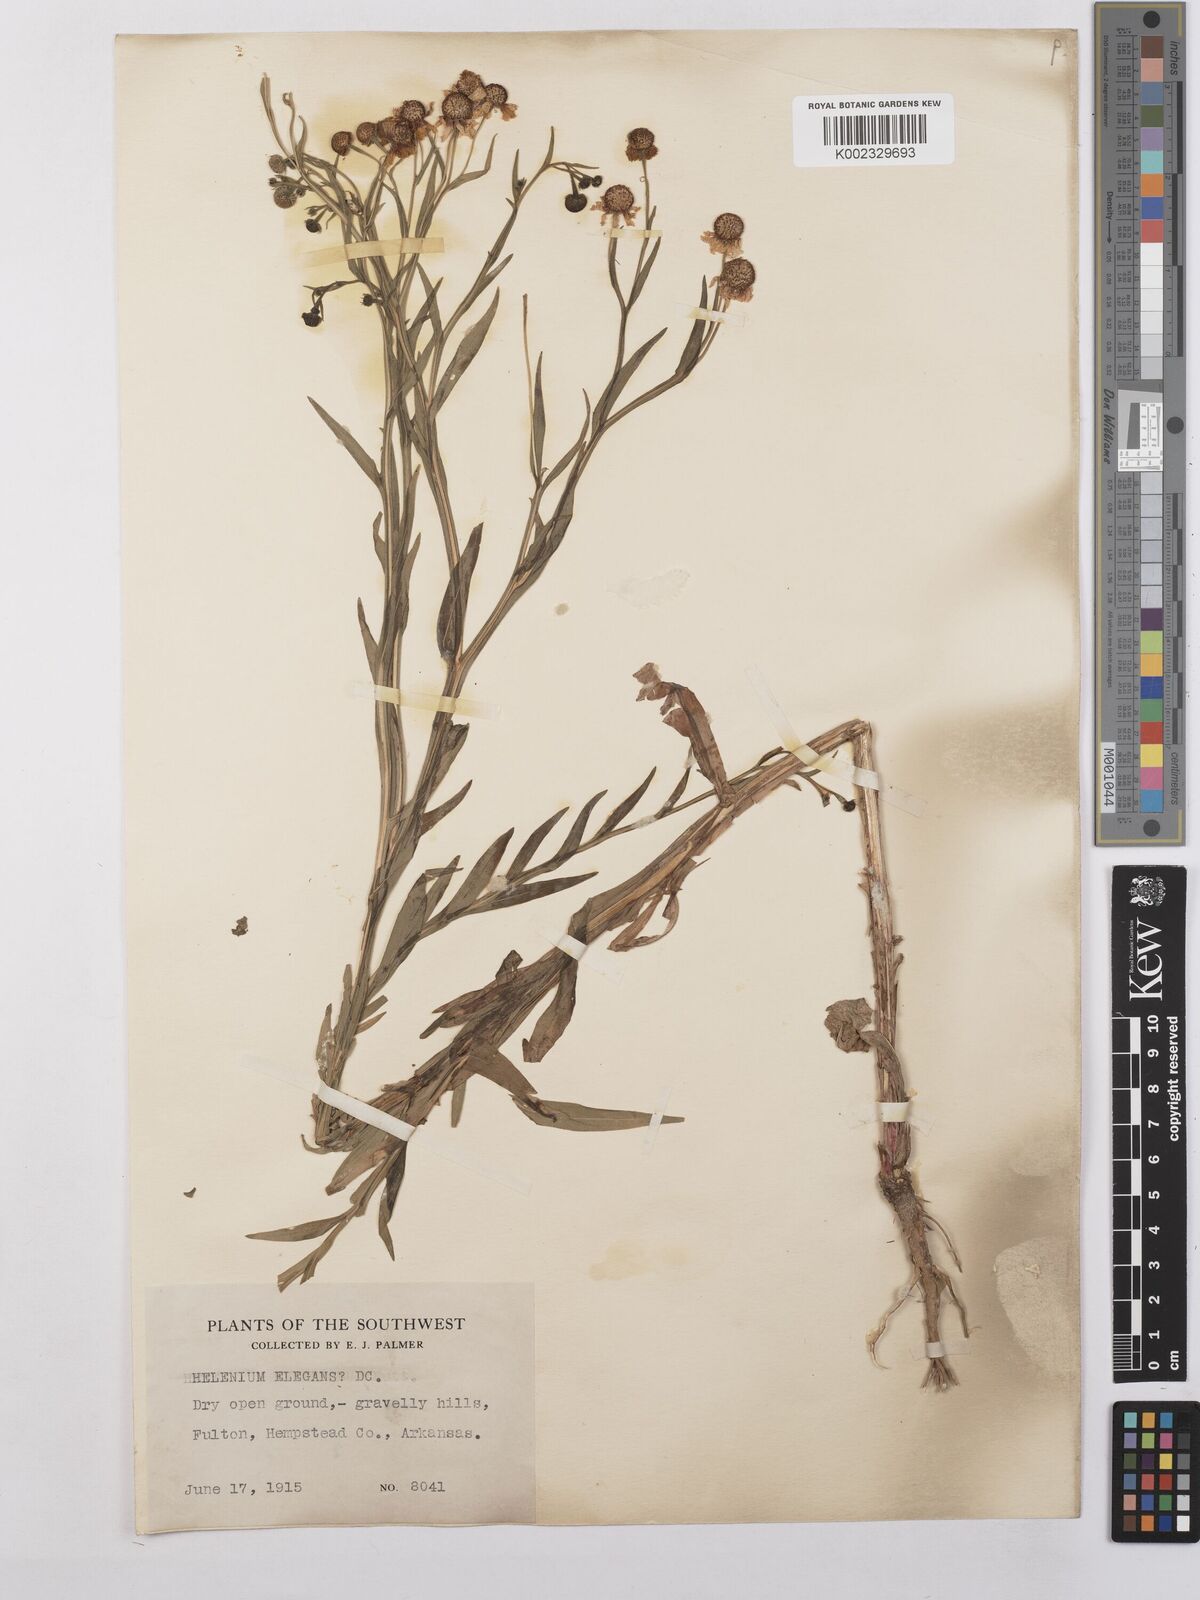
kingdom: Plantae
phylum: Tracheophyta
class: Magnoliopsida
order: Asterales
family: Asteraceae
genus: Helenium
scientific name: Helenium elegans
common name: Pretty sneezeweed
